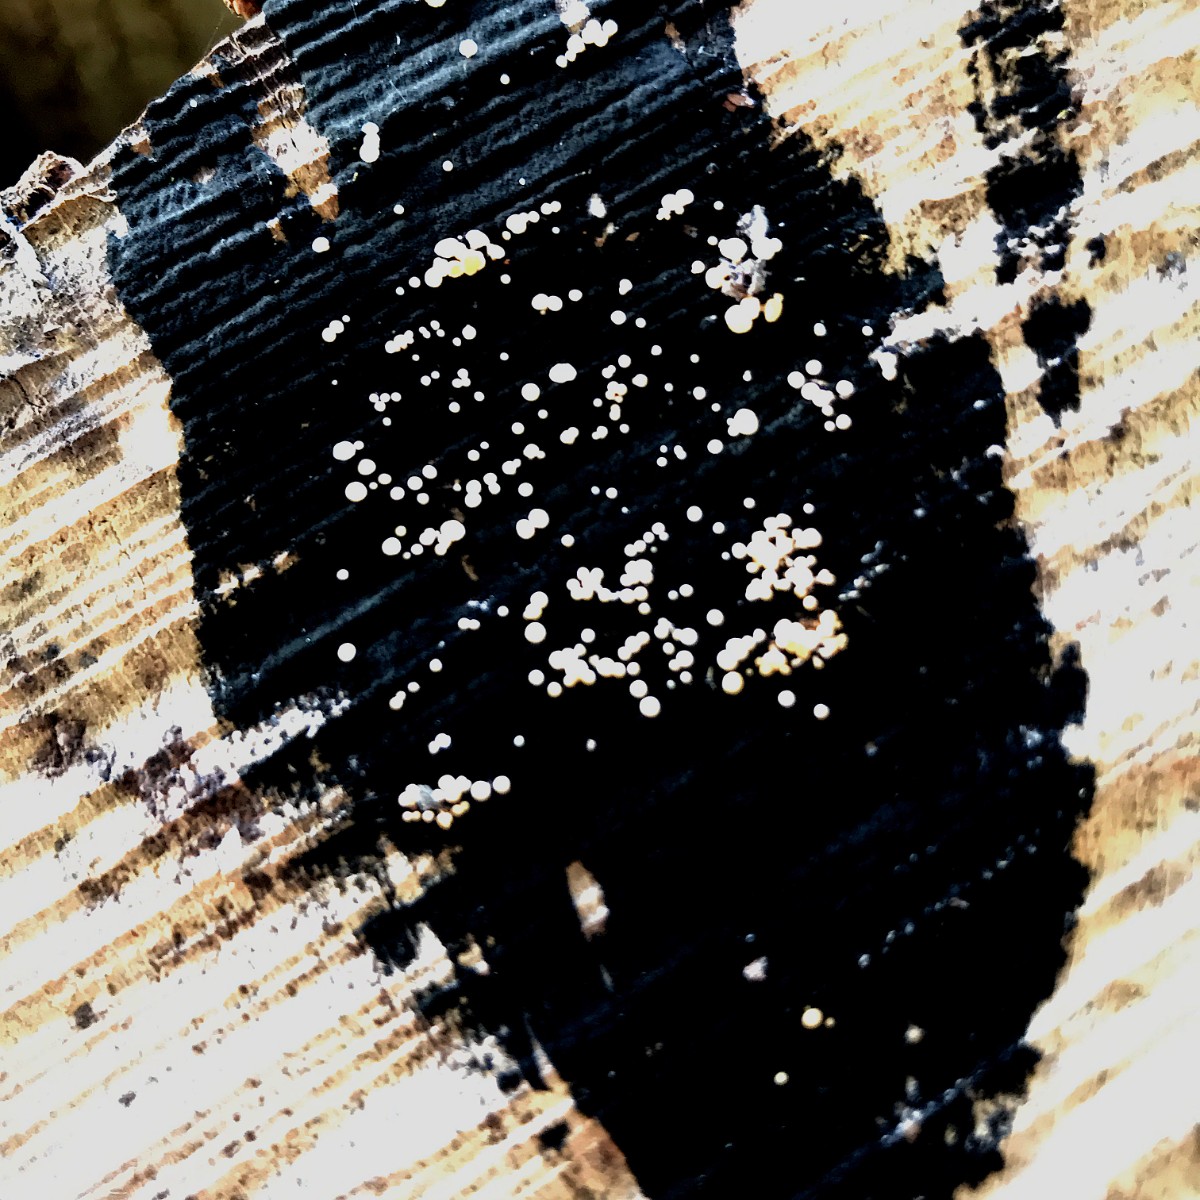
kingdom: Fungi
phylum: Ascomycota
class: Leotiomycetes
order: Helotiales
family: Helotiaceae
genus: Bispora
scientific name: Bispora pallescens
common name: måtte-snitskive
